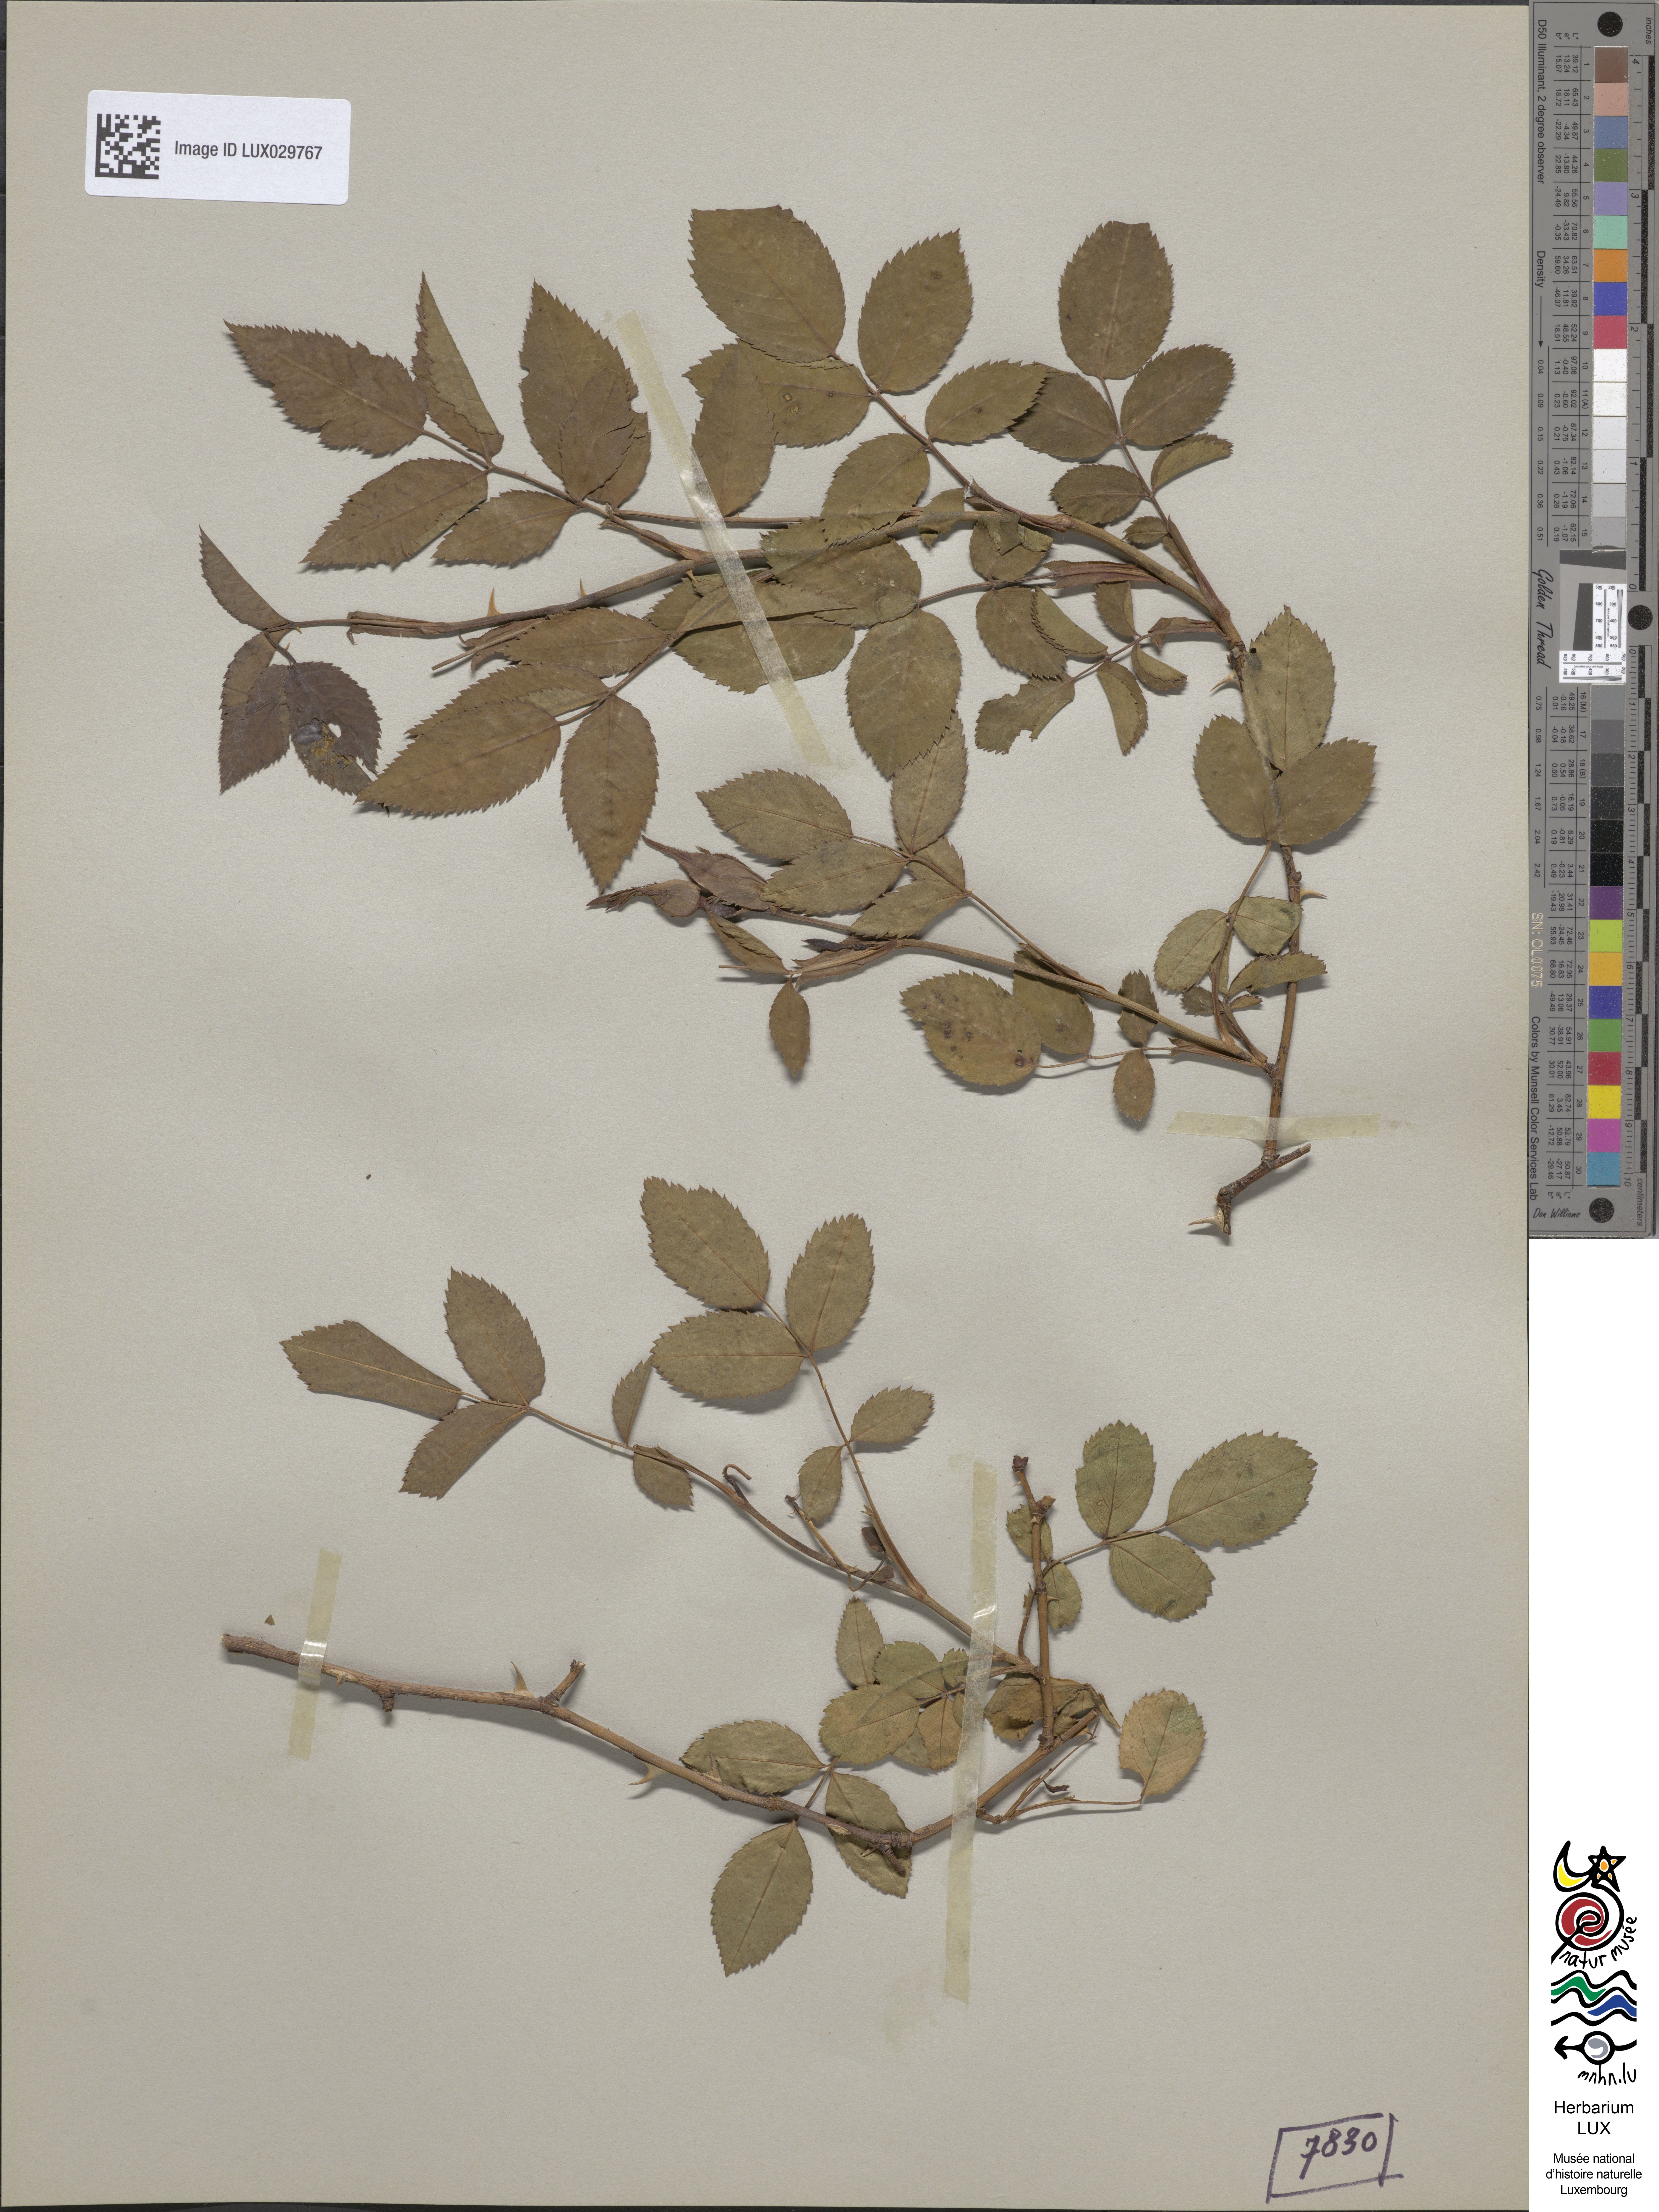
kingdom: Plantae
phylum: Tracheophyta
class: Magnoliopsida
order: Rosales
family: Rosaceae
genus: Rosa
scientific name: Rosa canina
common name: Dog rose
